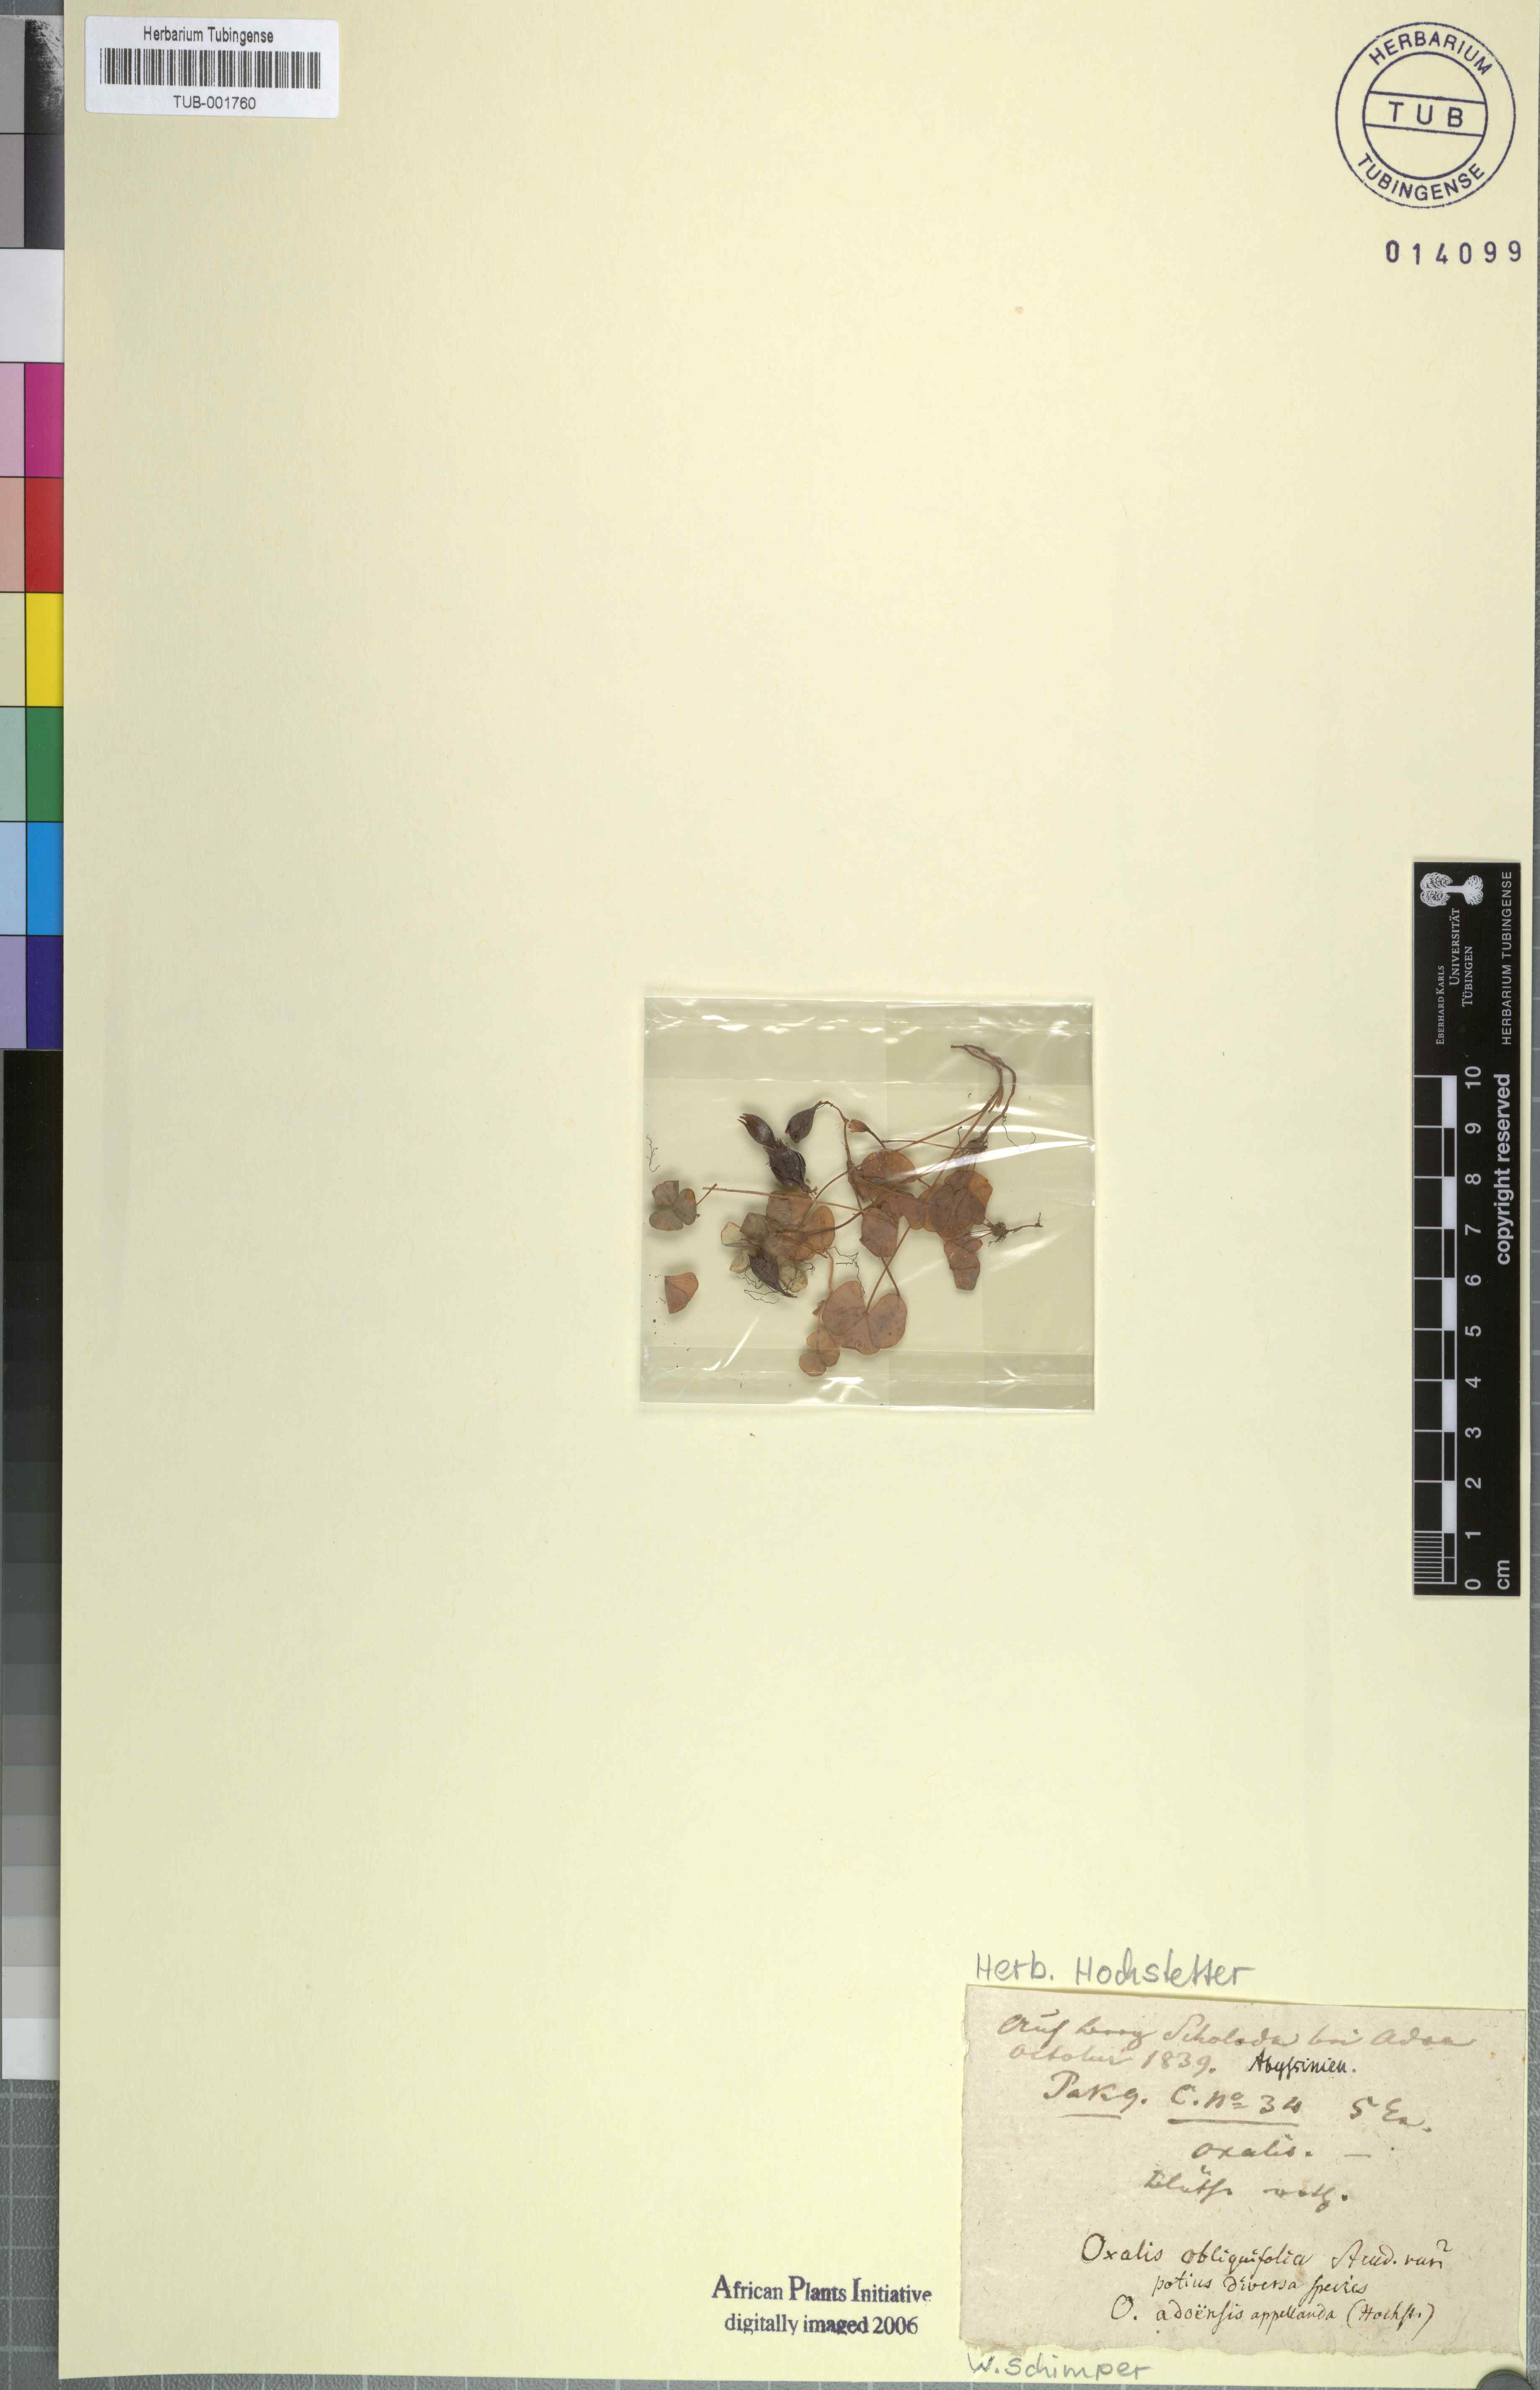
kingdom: Plantae
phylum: Tracheophyta
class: Magnoliopsida
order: Oxalidales
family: Oxalidaceae
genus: Oxalis
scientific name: Oxalis obliquifolia
